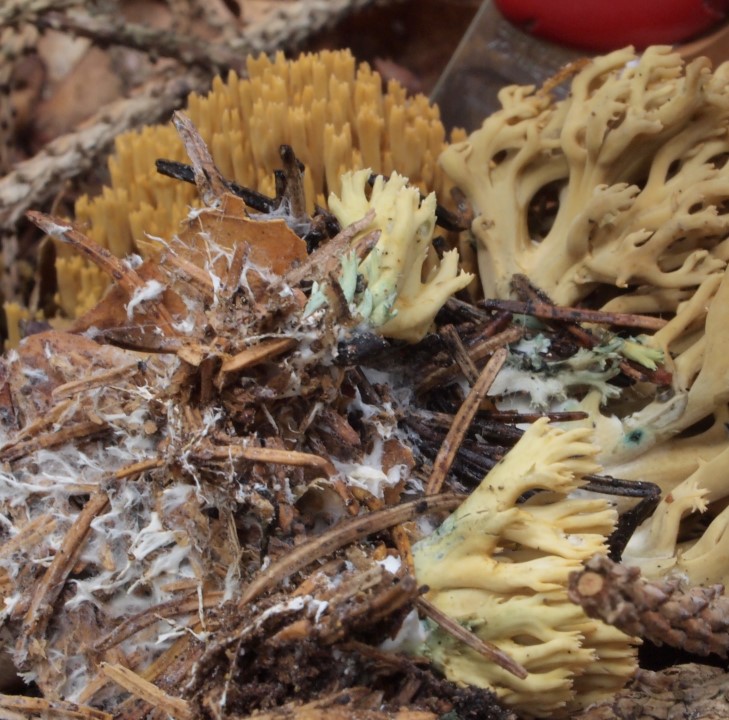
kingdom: Fungi
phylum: Basidiomycota
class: Agaricomycetes
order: Gomphales
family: Gomphaceae
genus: Phaeoclavulina
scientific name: Phaeoclavulina abietina
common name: gulgrøn koralsvamp
